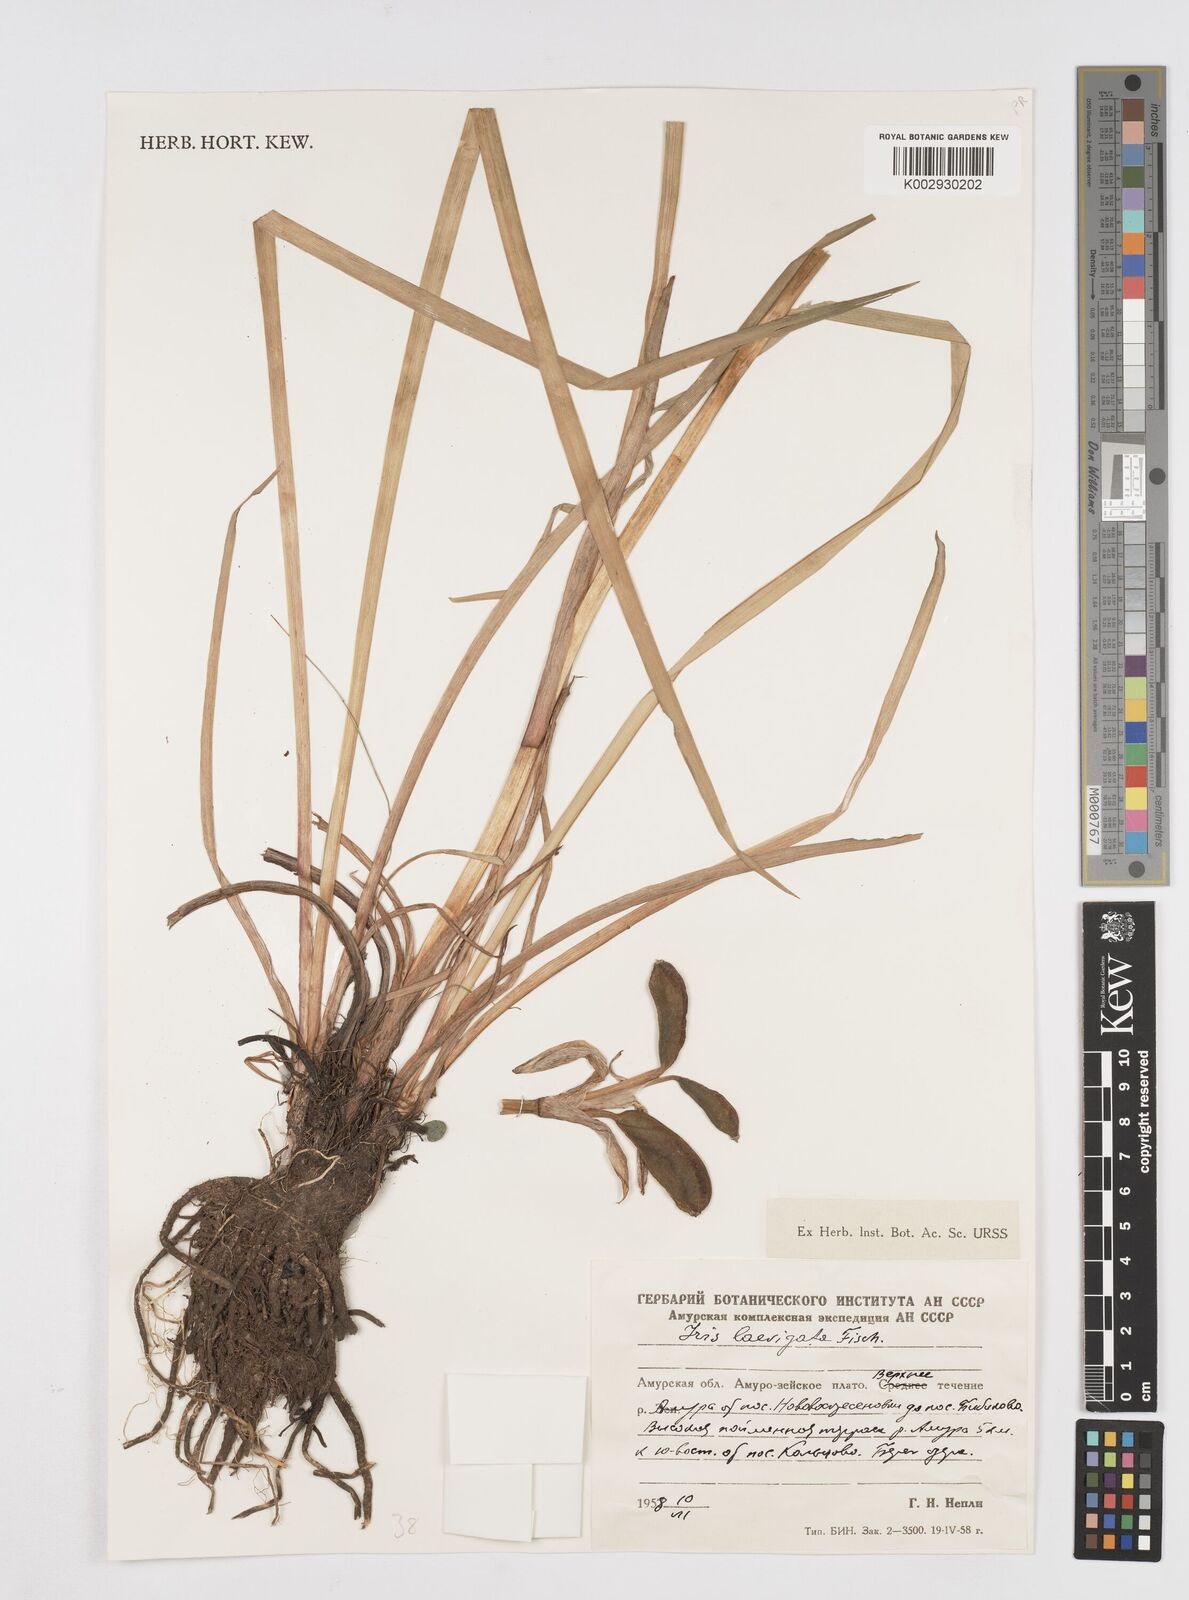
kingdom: Plantae
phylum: Tracheophyta
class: Liliopsida
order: Asparagales
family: Iridaceae
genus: Iris
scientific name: Iris laevigata
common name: Japanese iris
